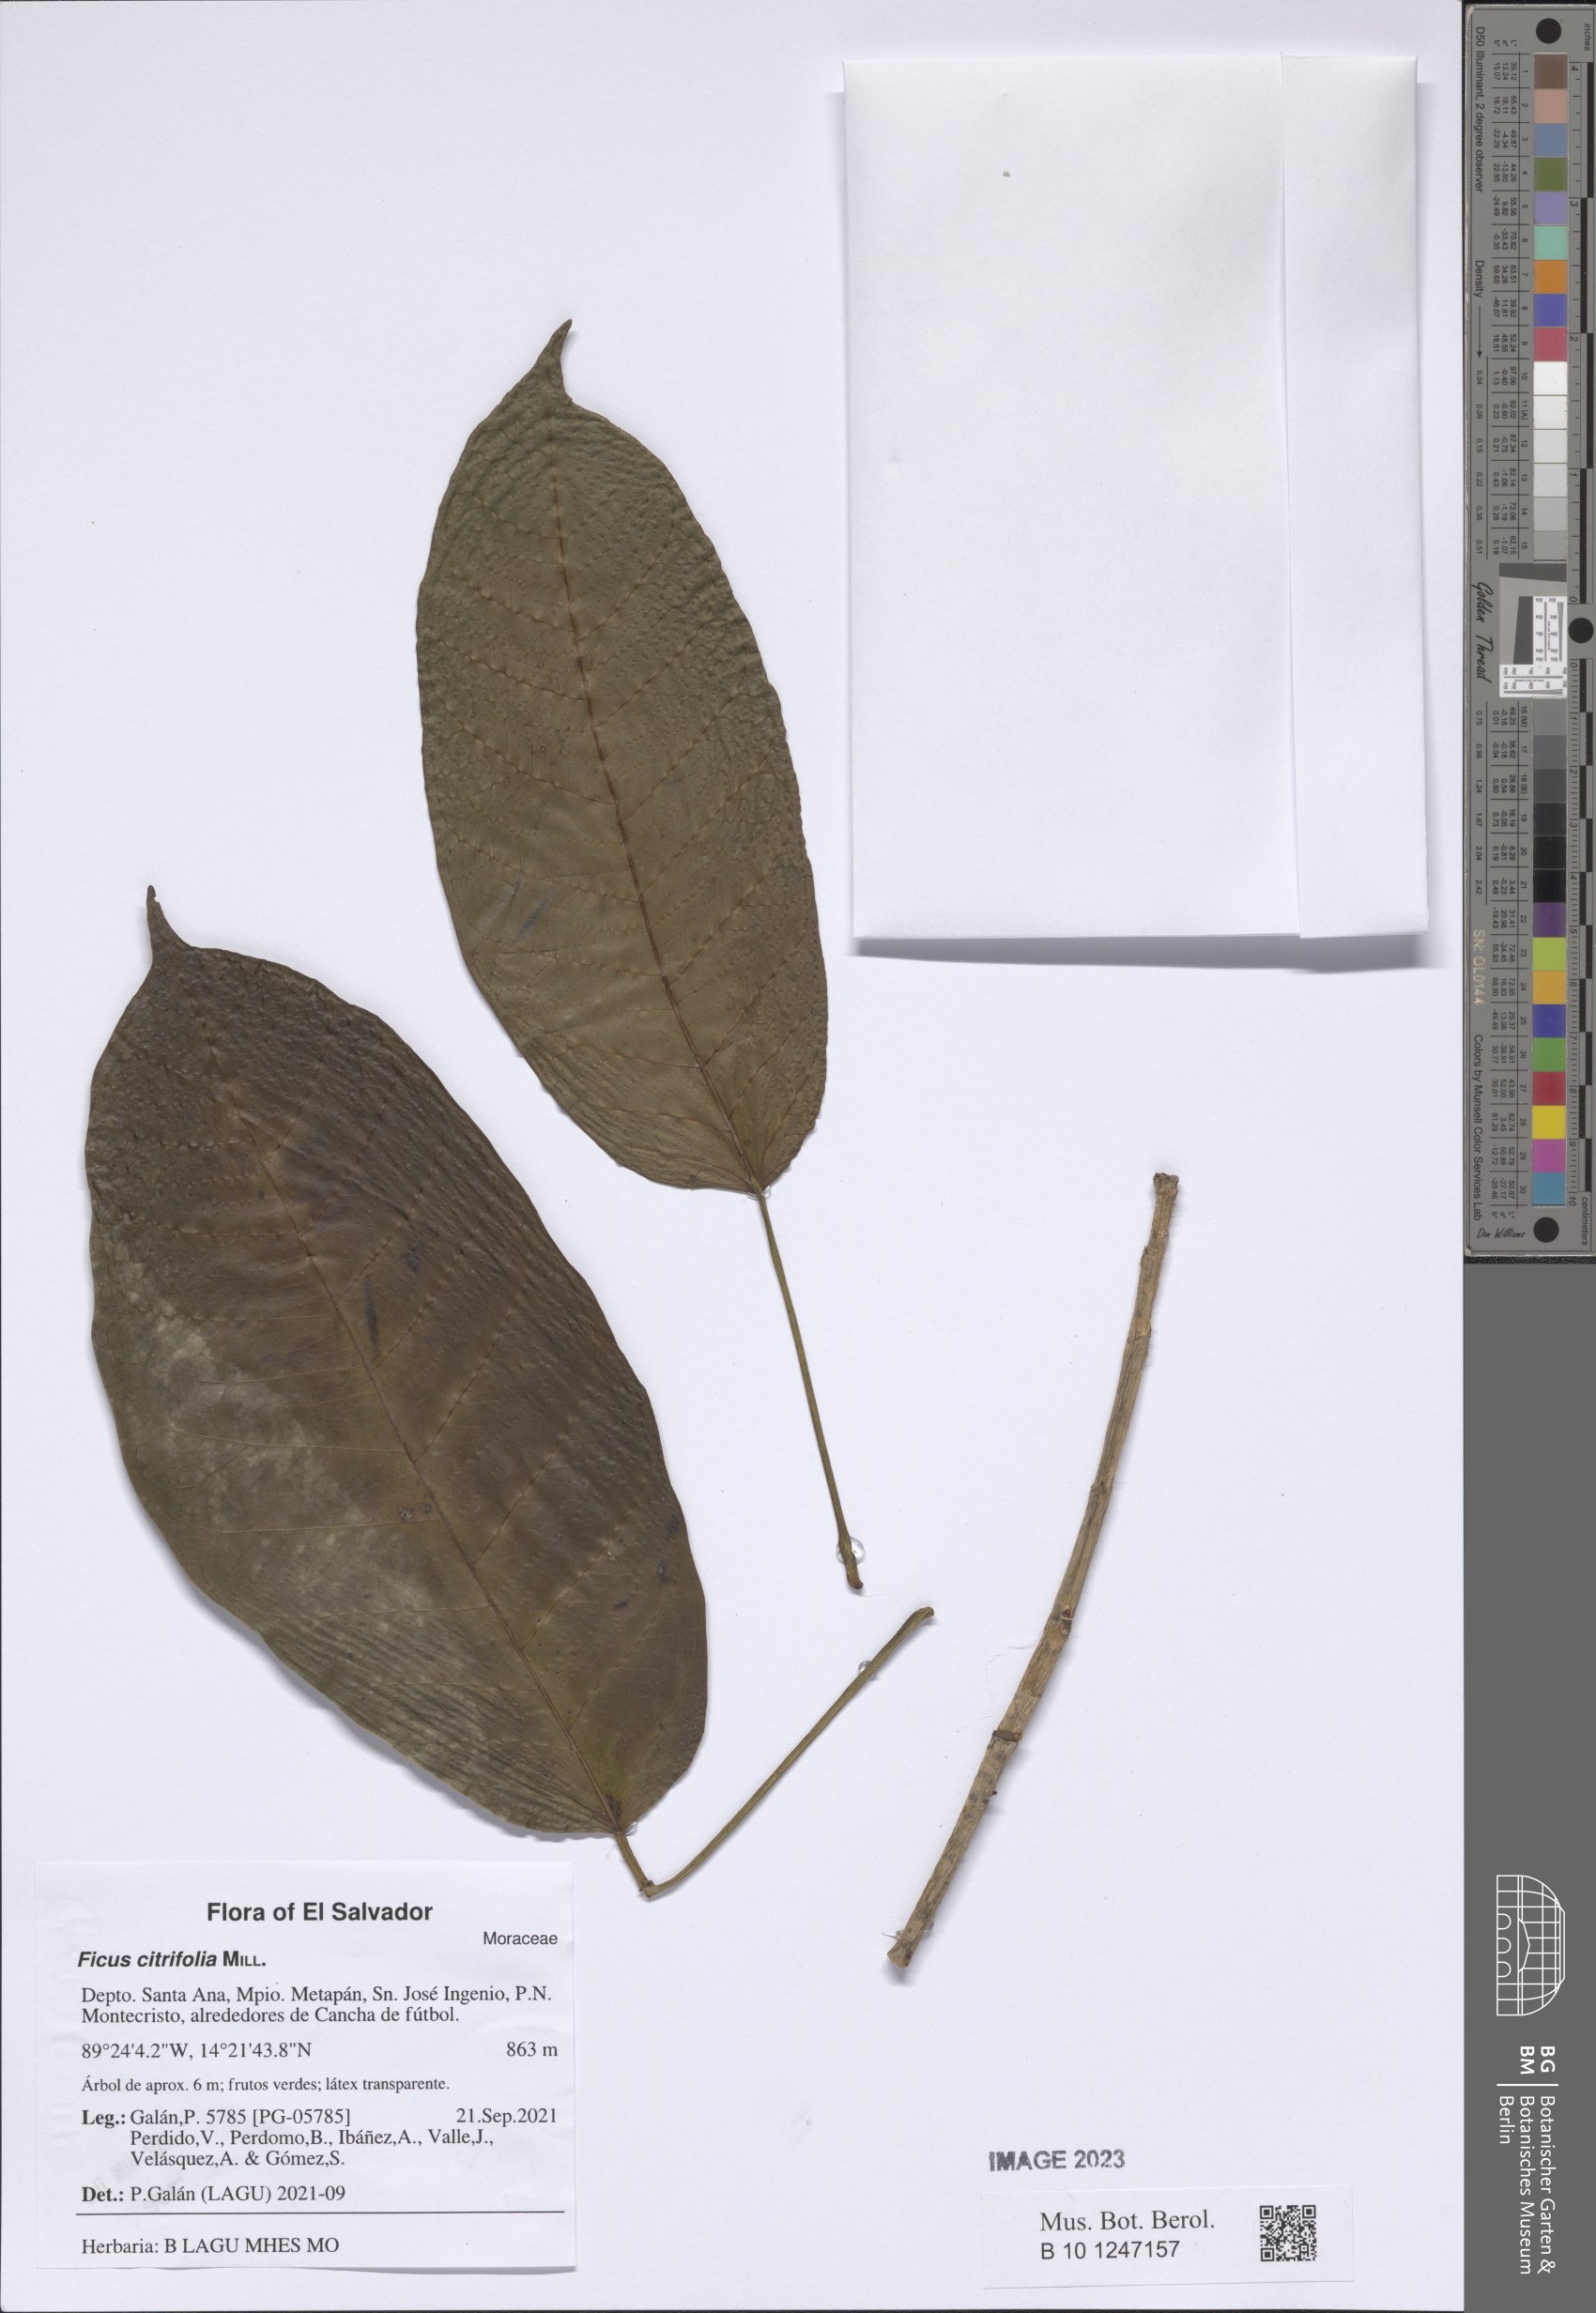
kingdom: Plantae
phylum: Tracheophyta
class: Magnoliopsida
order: Rosales
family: Moraceae
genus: Ficus
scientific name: Ficus citrifolia
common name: Strangler fig
